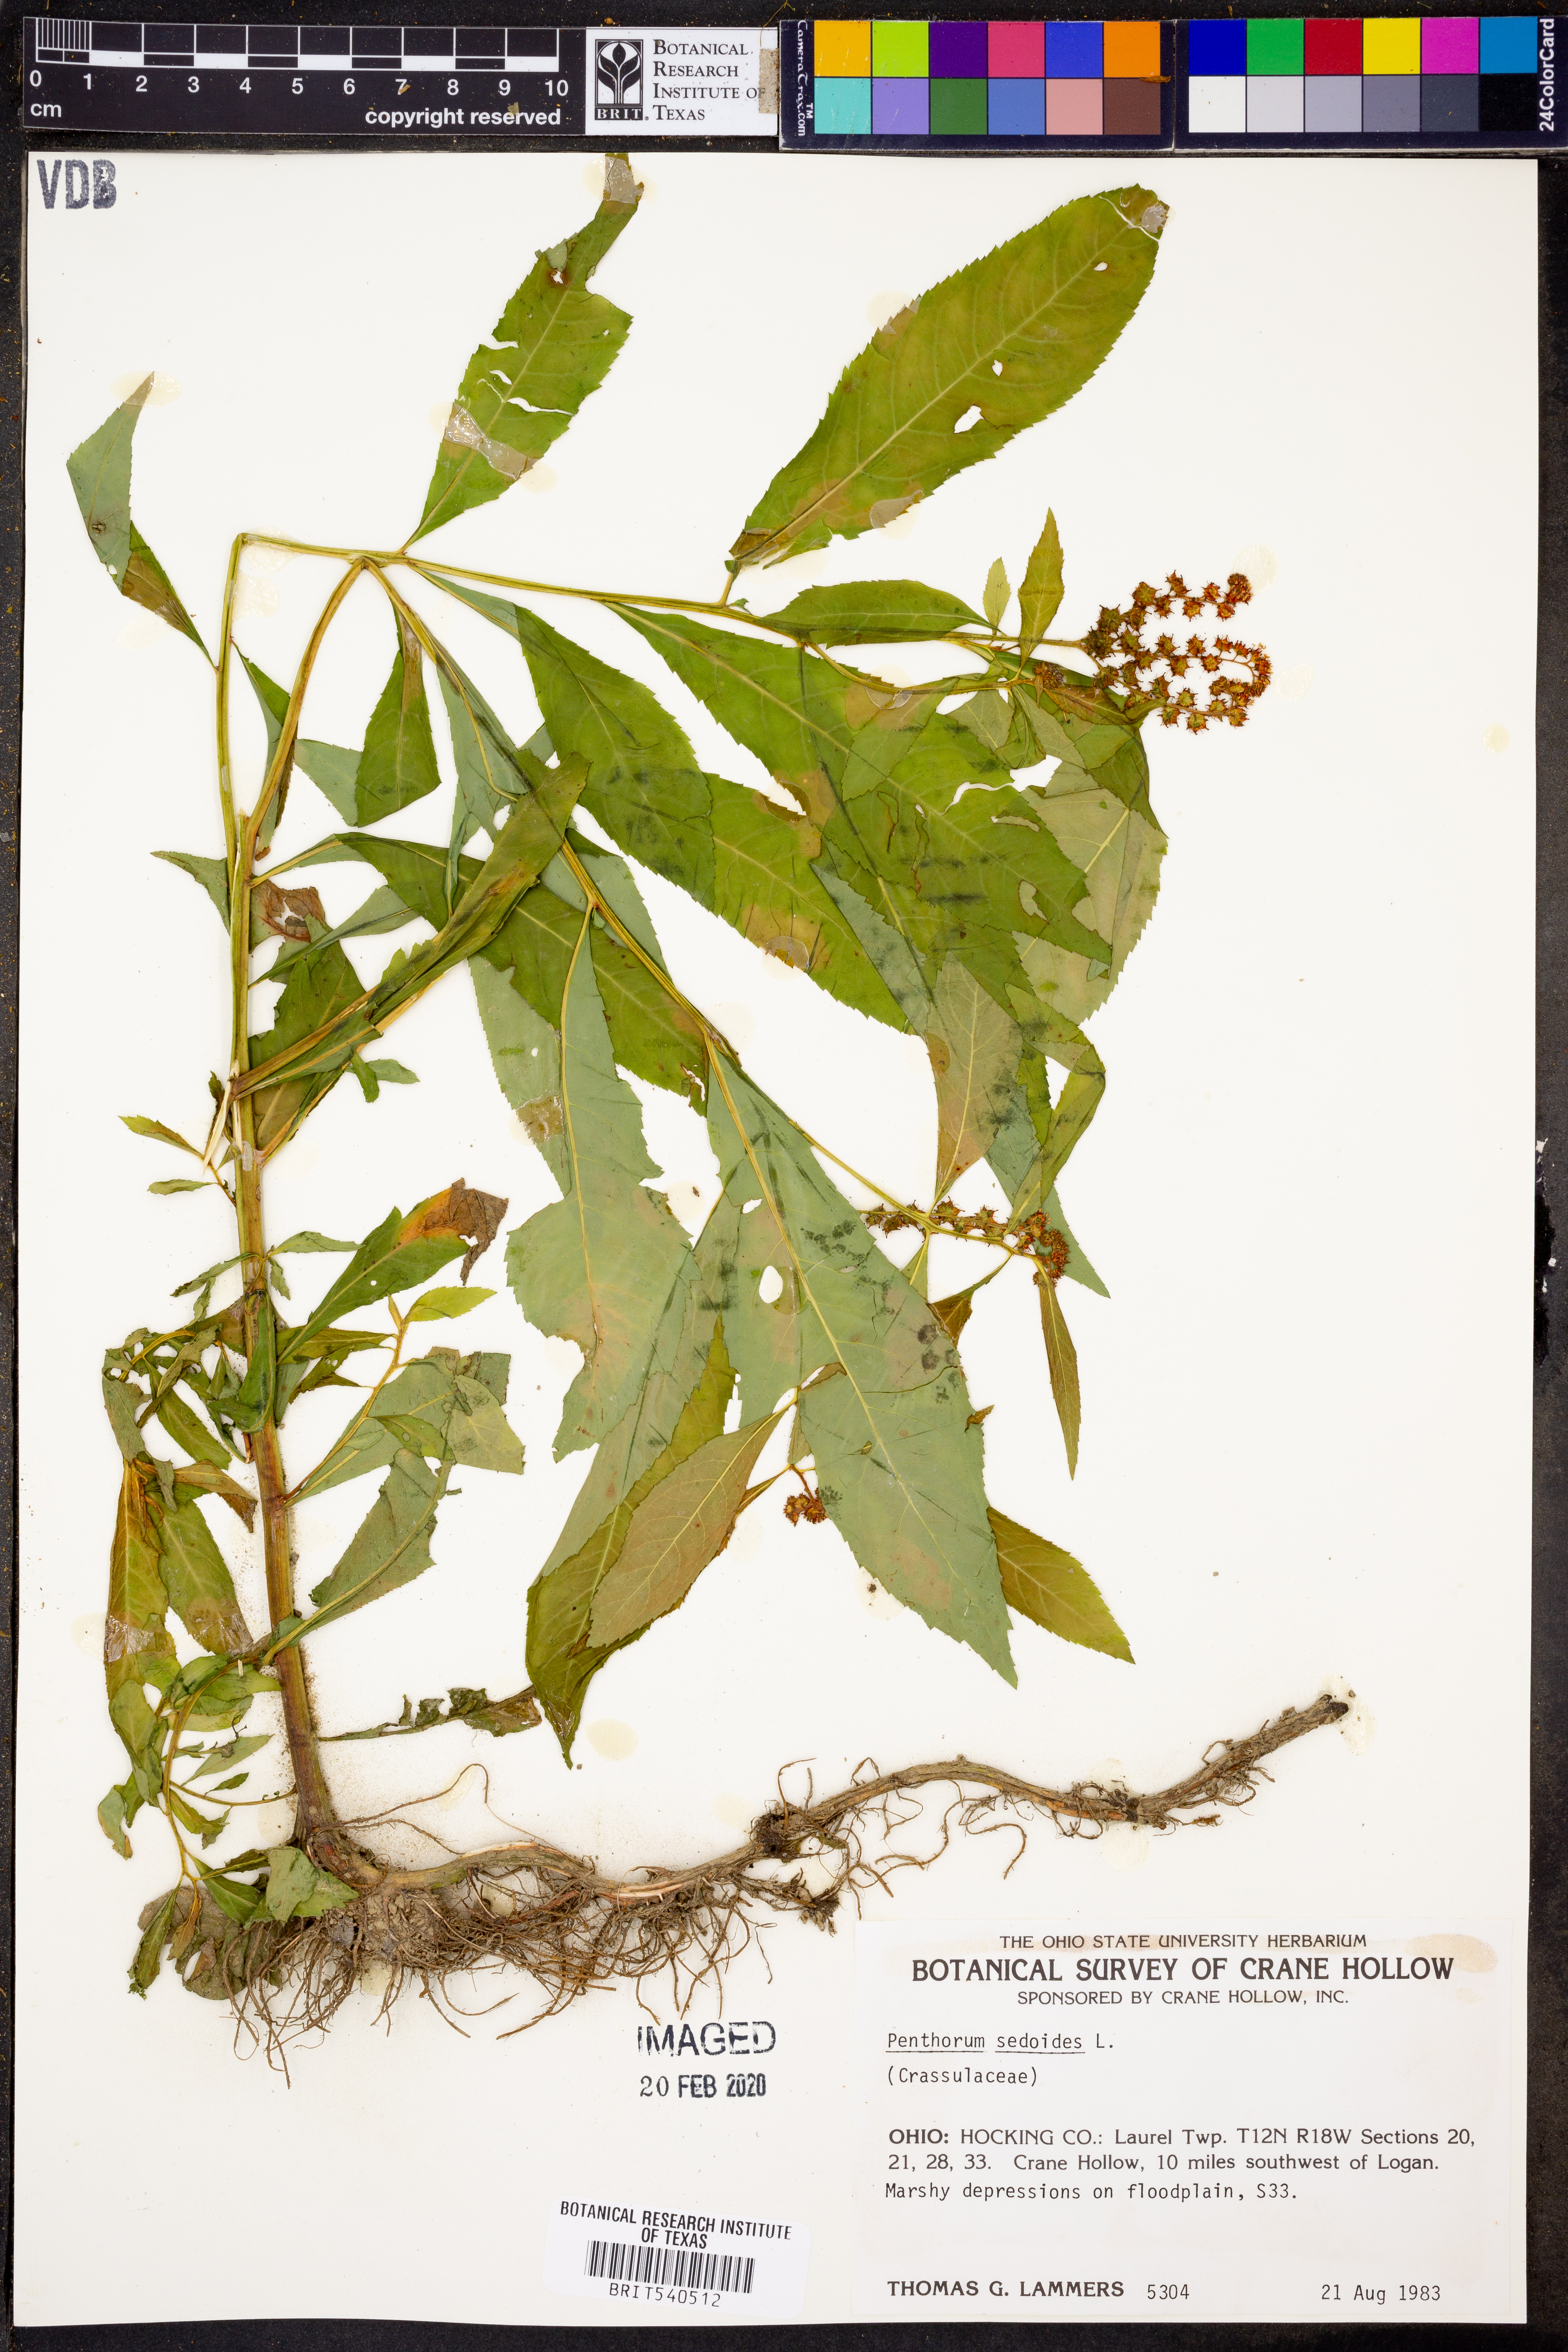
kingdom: Plantae
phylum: Tracheophyta
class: Magnoliopsida
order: Saxifragales
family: Penthoraceae
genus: Penthorum
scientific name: Penthorum sedoides
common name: Ditch stonecrop
